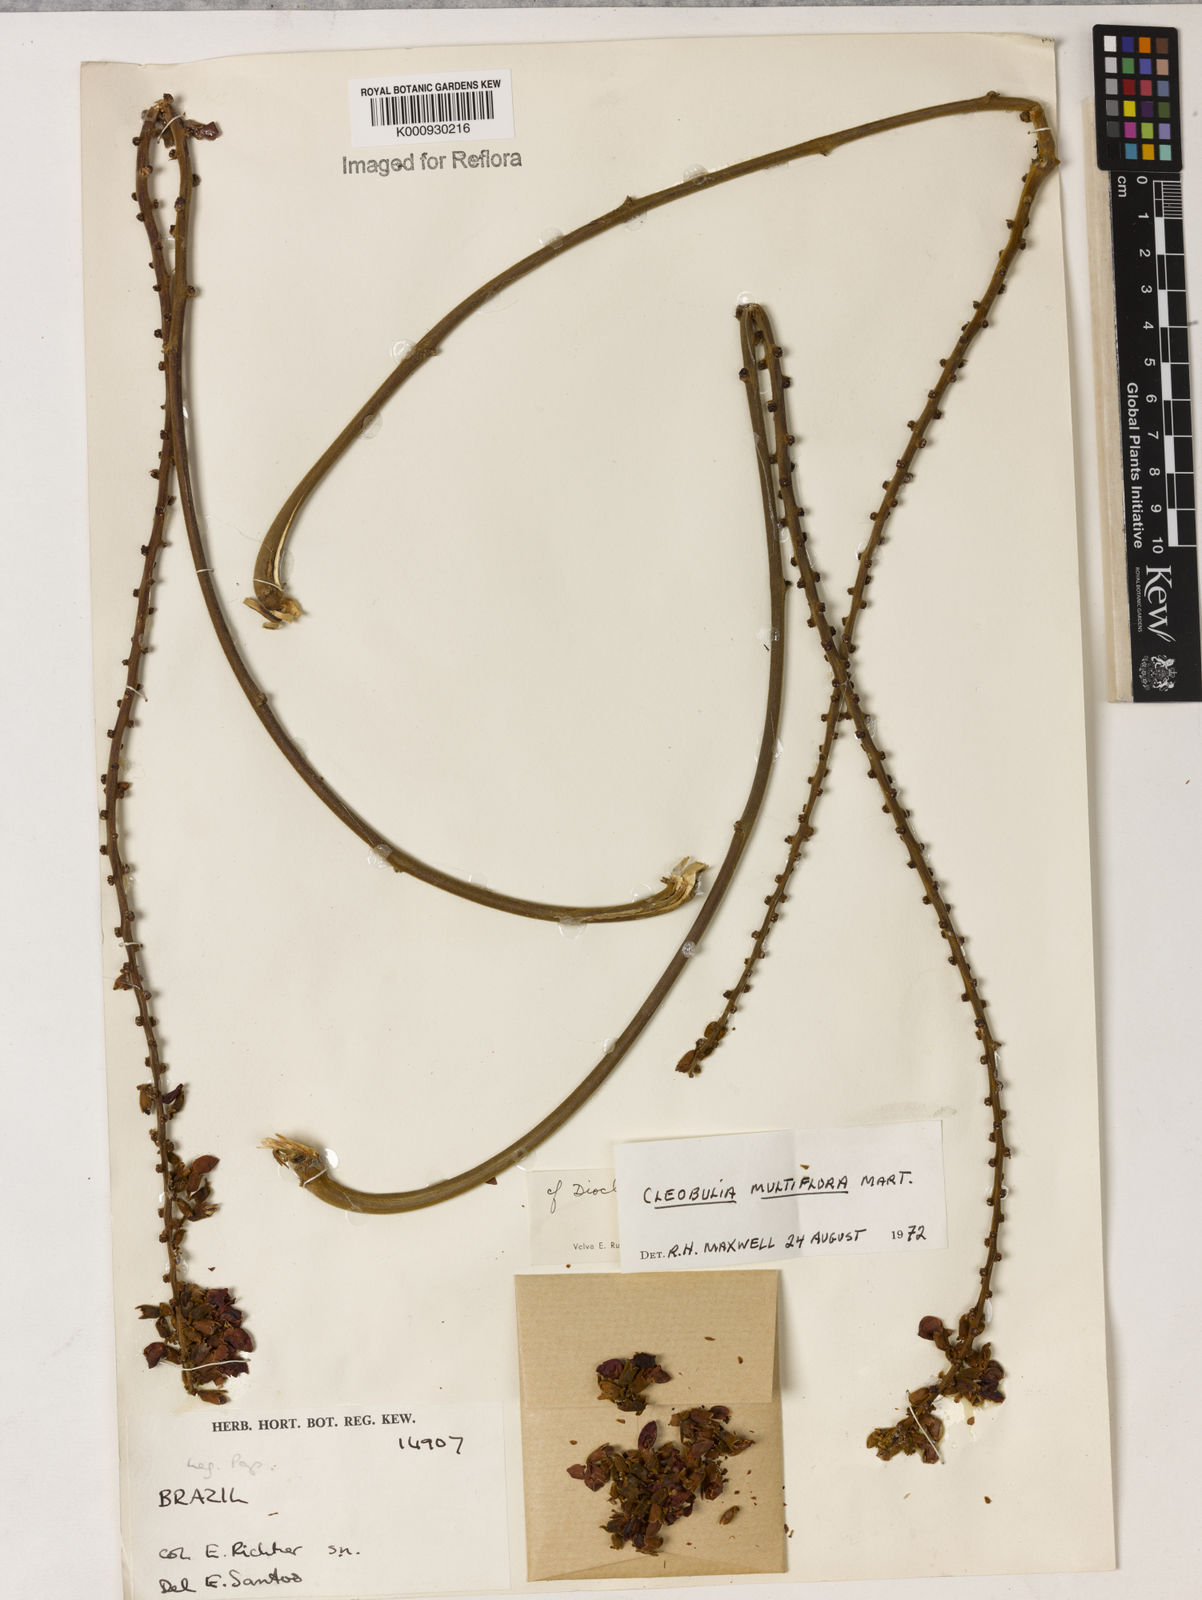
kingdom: Plantae
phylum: Tracheophyta
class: Magnoliopsida
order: Fabales
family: Fabaceae
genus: Cleobulia
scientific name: Cleobulia coccinea
